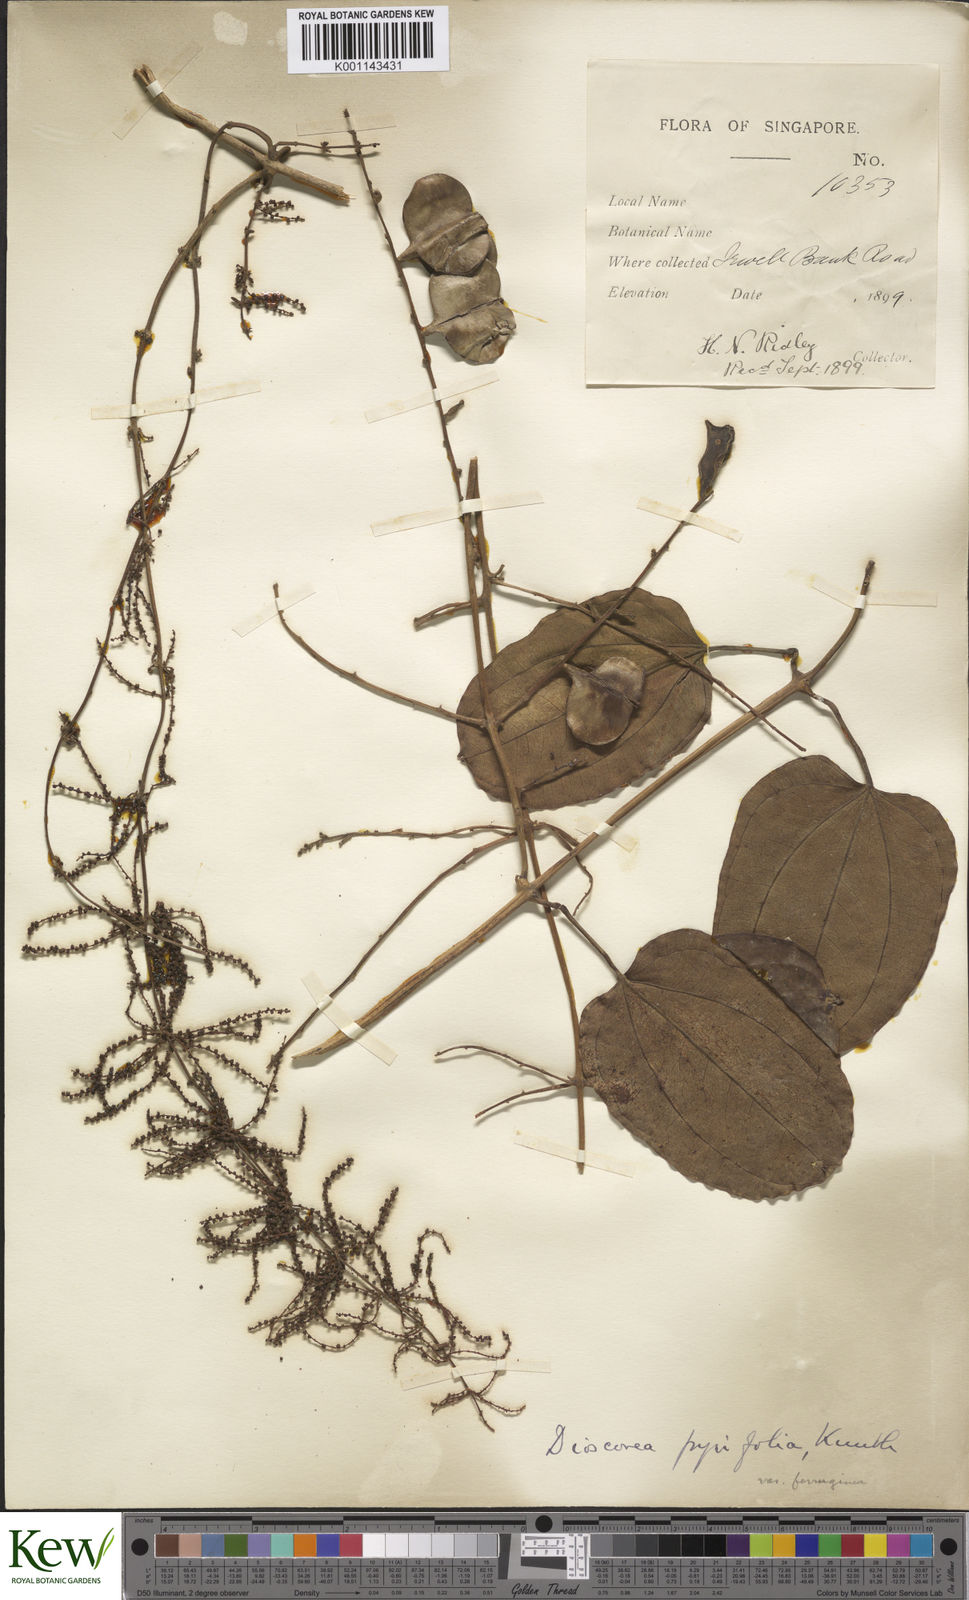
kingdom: Plantae
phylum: Tracheophyta
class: Liliopsida
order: Dioscoreales
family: Dioscoreaceae
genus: Dioscorea
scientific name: Dioscorea pyrifolia
